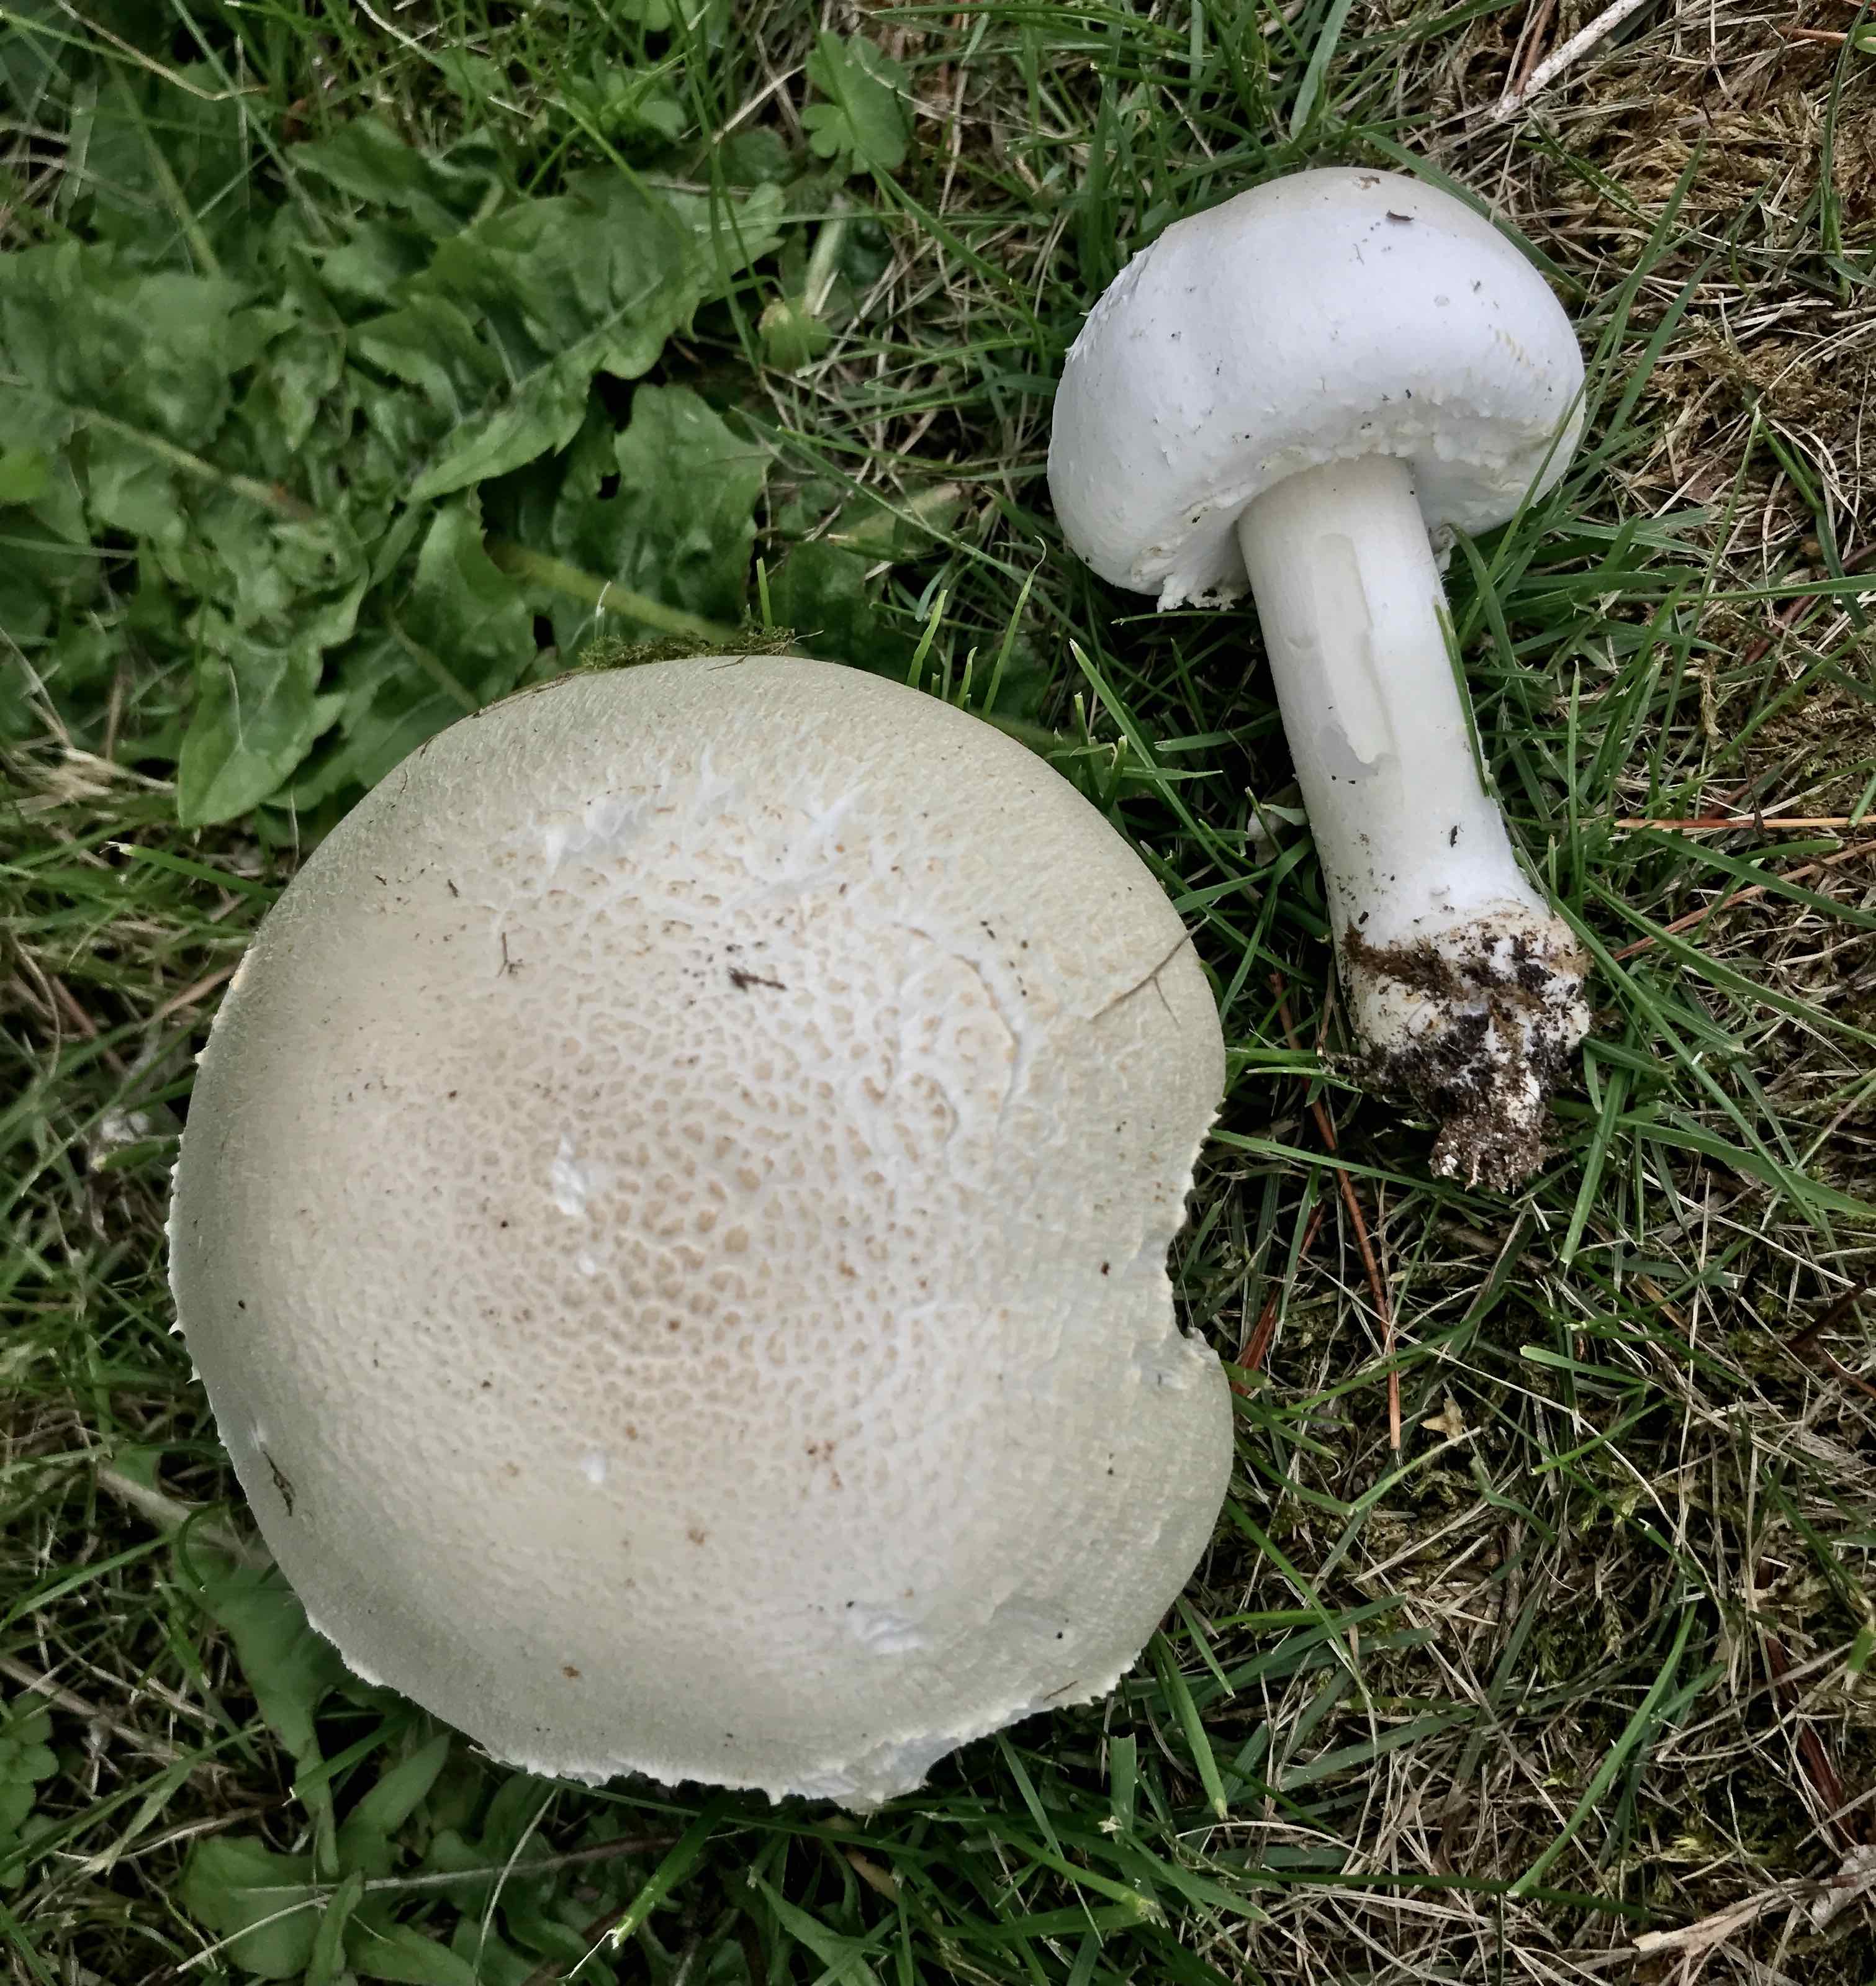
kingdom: Fungi
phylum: Basidiomycota
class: Agaricomycetes
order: Agaricales
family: Agaricaceae
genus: Agaricus
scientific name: Agaricus arvensis
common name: ager-champignon
